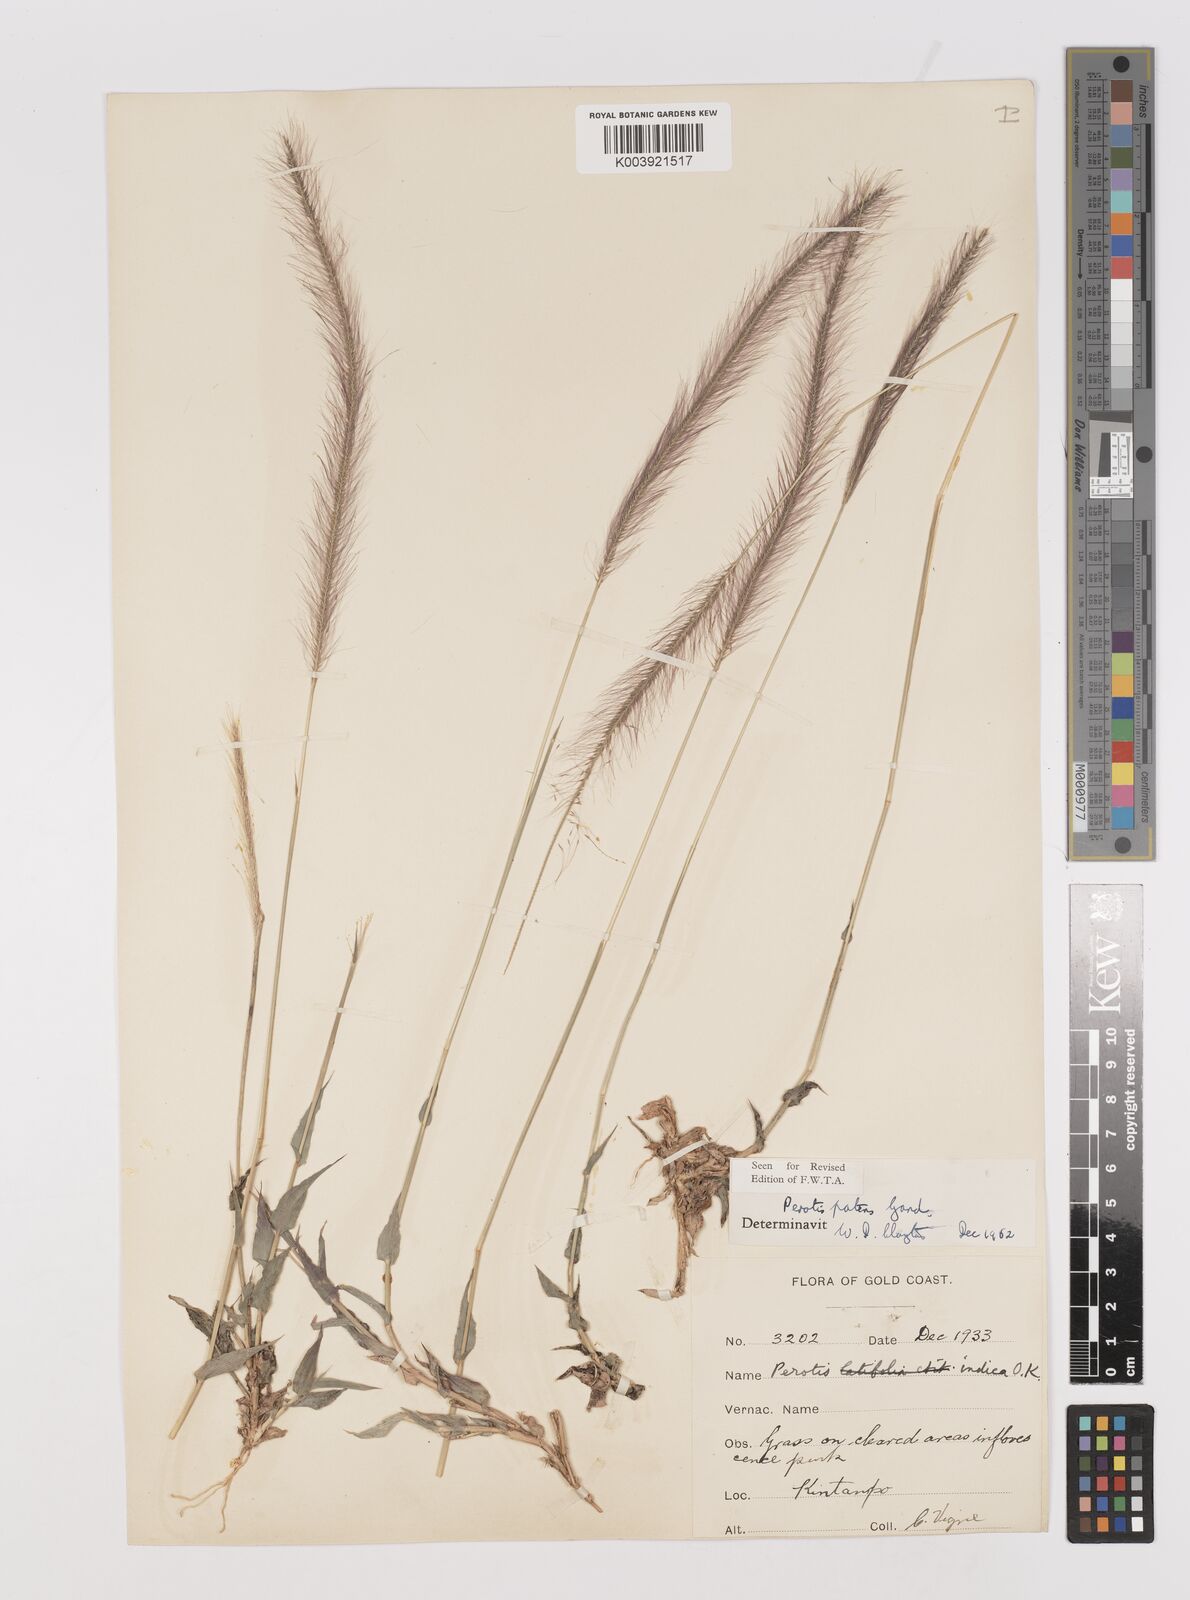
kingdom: Plantae
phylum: Tracheophyta
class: Liliopsida
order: Poales
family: Poaceae
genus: Perotis
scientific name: Perotis patens
